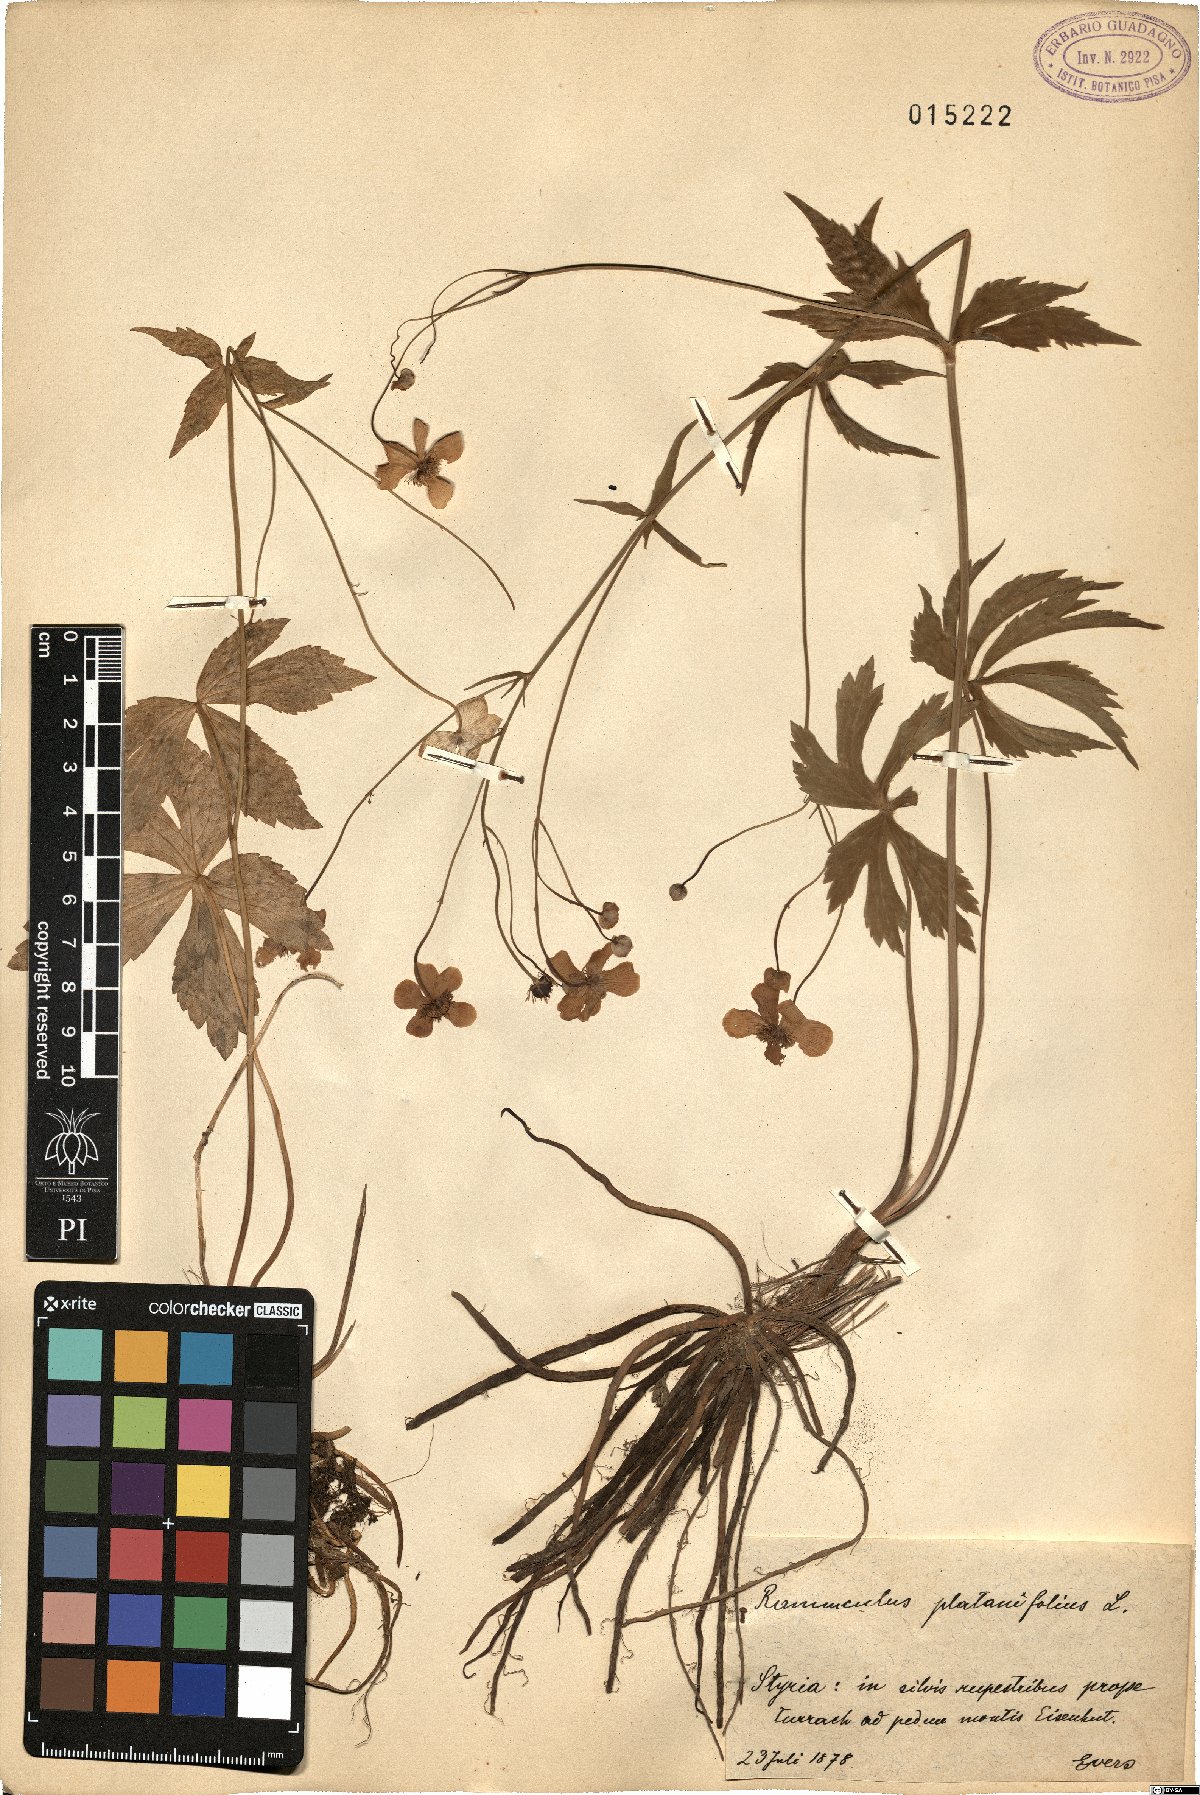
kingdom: Plantae
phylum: Tracheophyta
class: Magnoliopsida
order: Ranunculales
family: Ranunculaceae
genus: Ranunculus
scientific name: Ranunculus platanifolius
